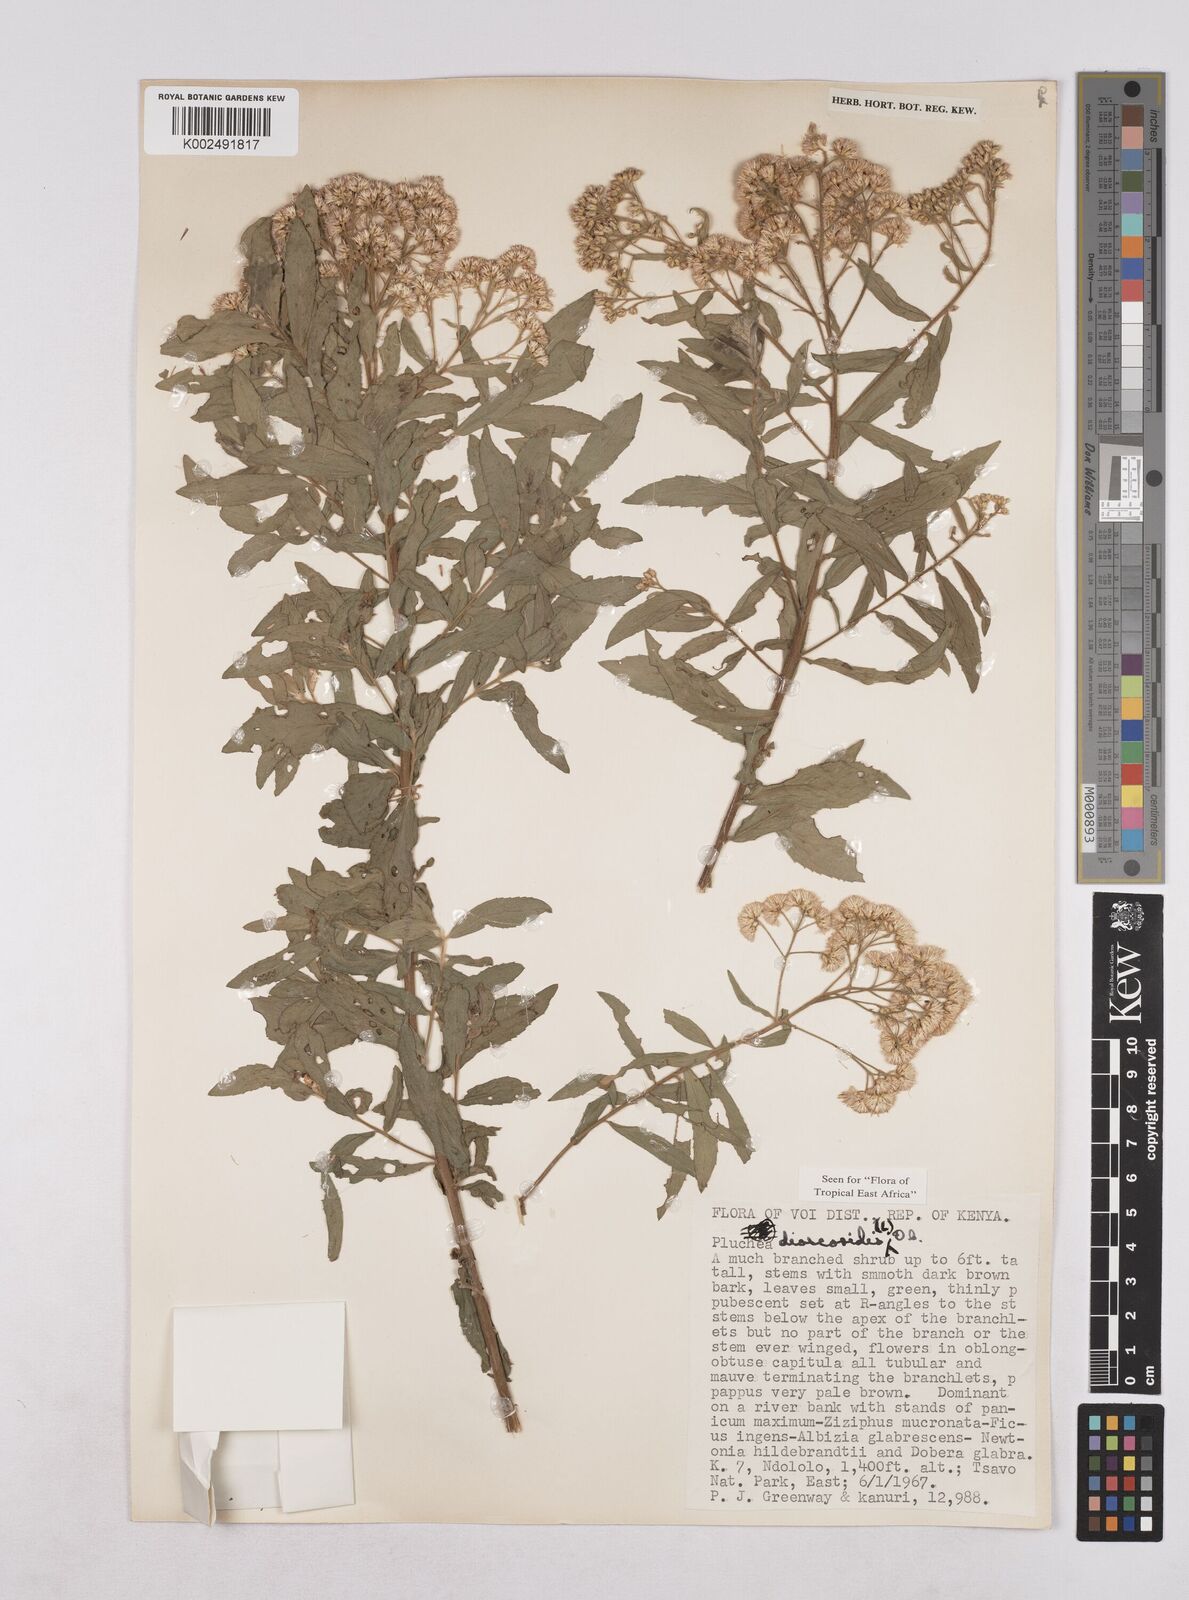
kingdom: Plantae
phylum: Tracheophyta
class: Magnoliopsida
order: Asterales
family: Asteraceae
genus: Pluchea
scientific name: Pluchea dioscoridis
